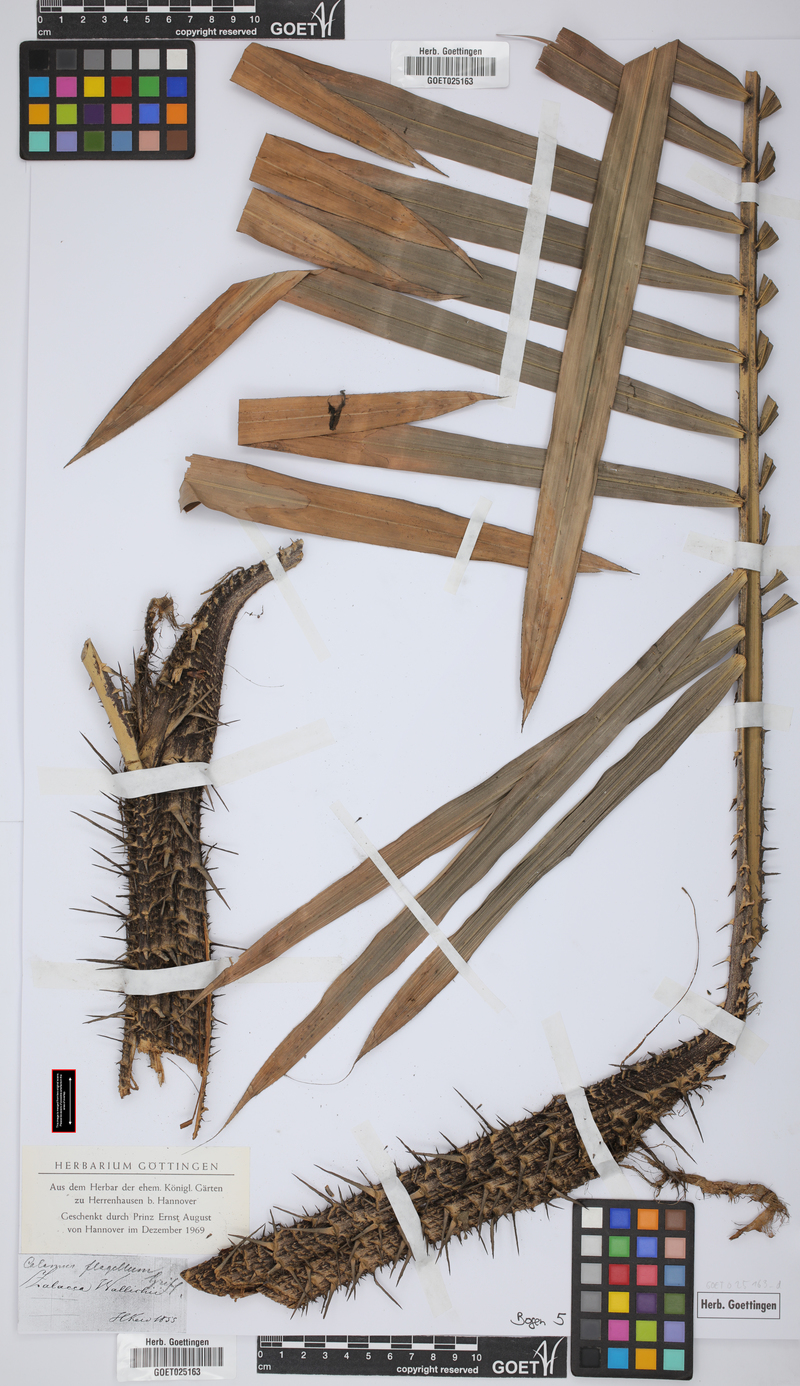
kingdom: Plantae
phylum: Tracheophyta
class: Liliopsida
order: Arecales
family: Arecaceae
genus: Salacca
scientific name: Salacca wallichiana
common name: Rakum palm
